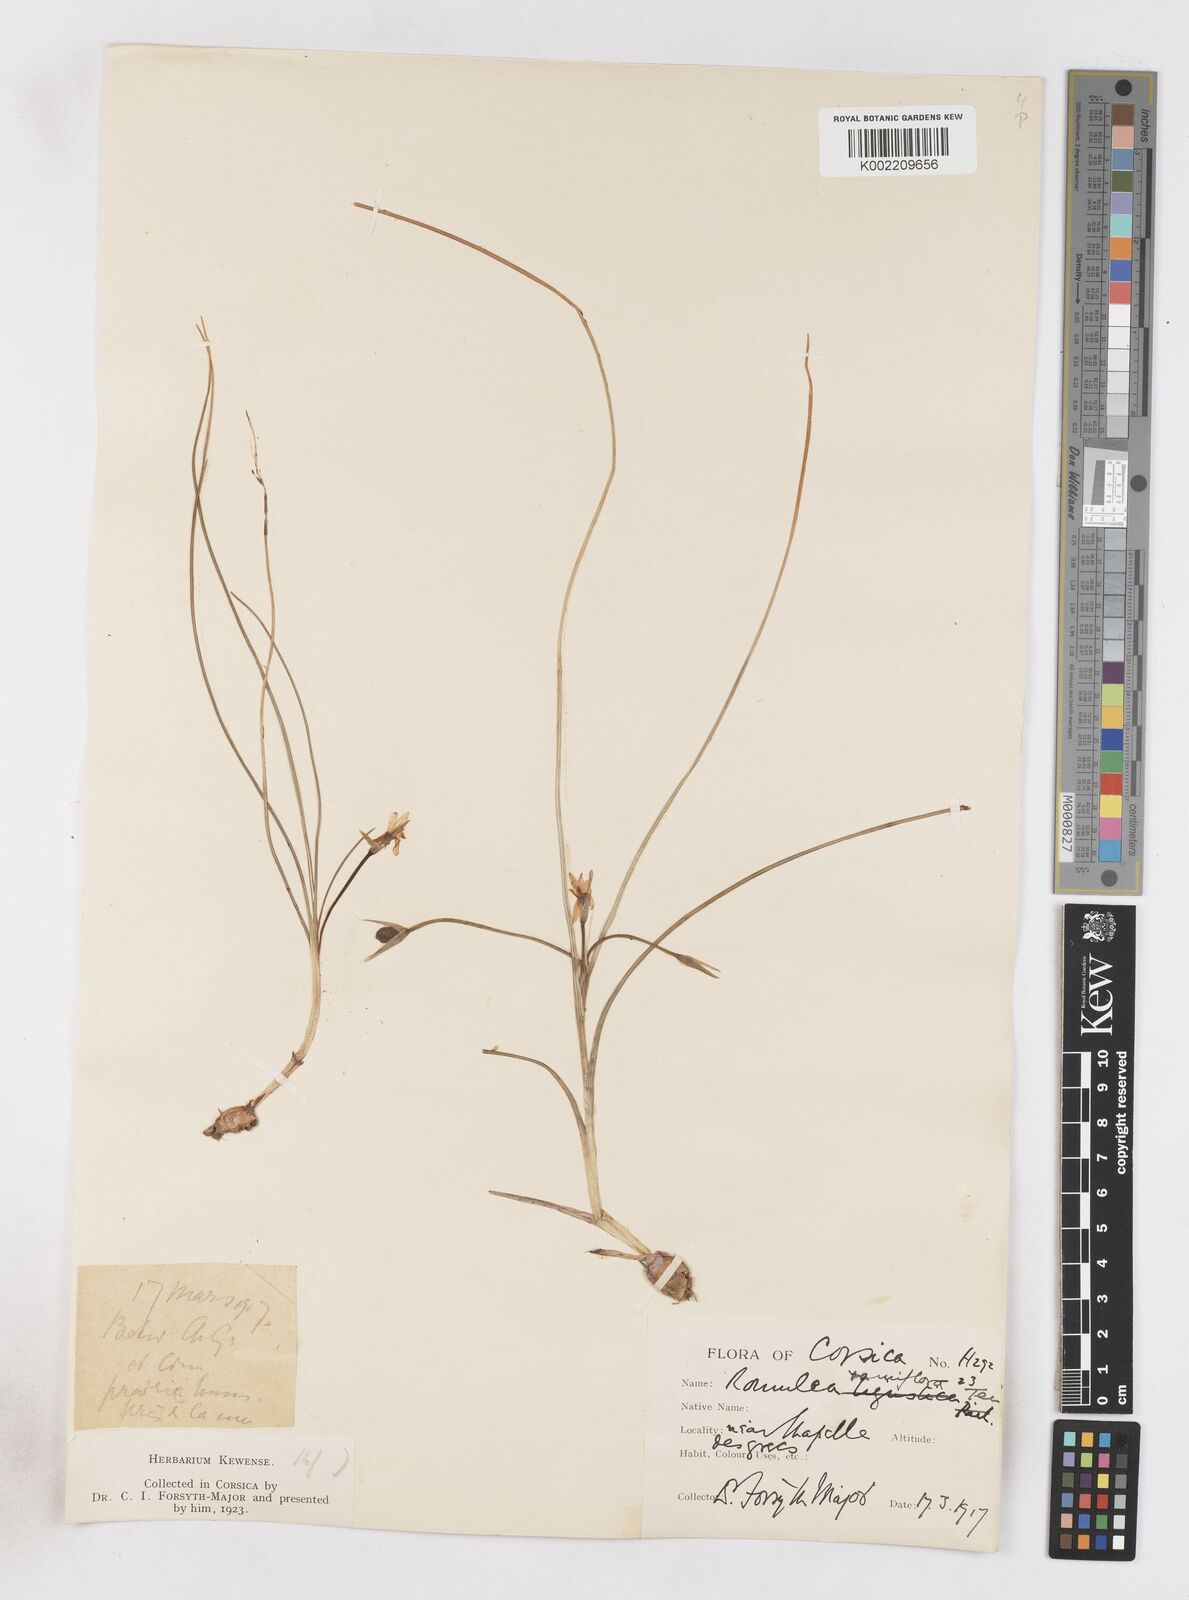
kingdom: Plantae
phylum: Tracheophyta
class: Liliopsida
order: Asparagales
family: Iridaceae
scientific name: Iridaceae
